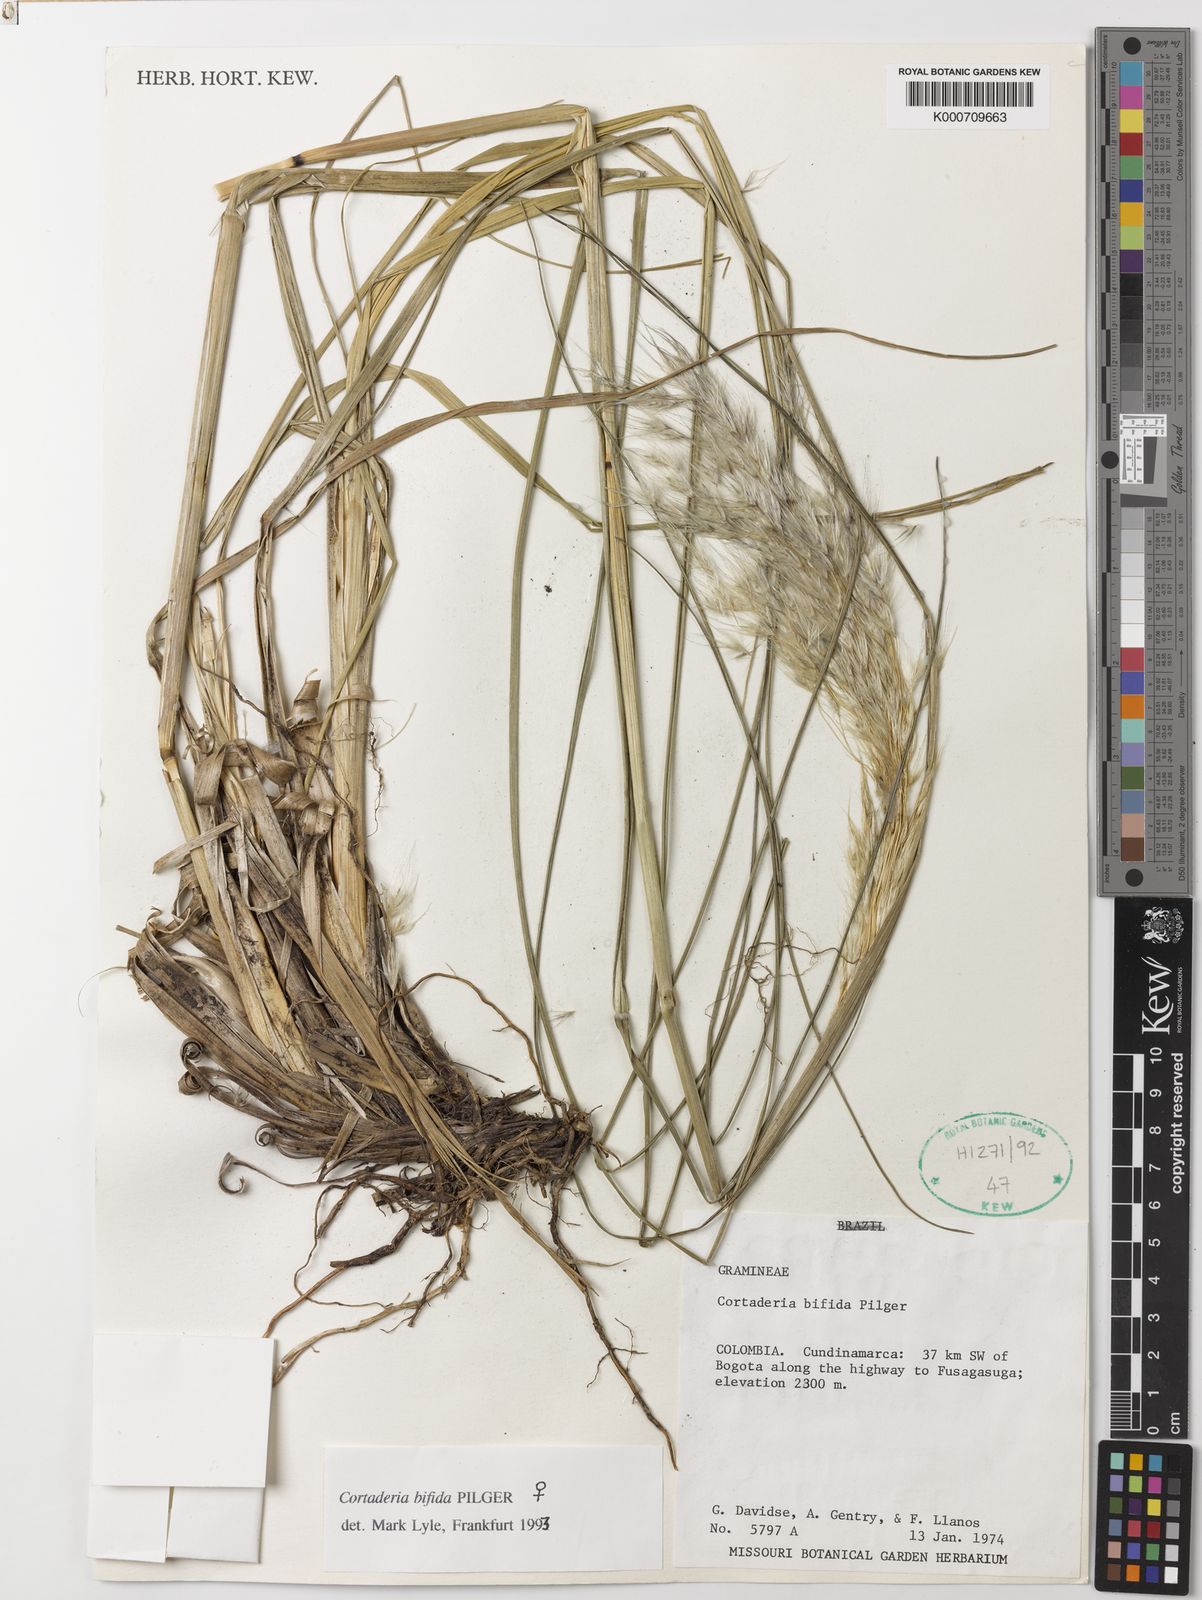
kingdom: Plantae
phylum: Tracheophyta
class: Liliopsida
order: Poales
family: Poaceae
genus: Cortaderia
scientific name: Cortaderia bifida
